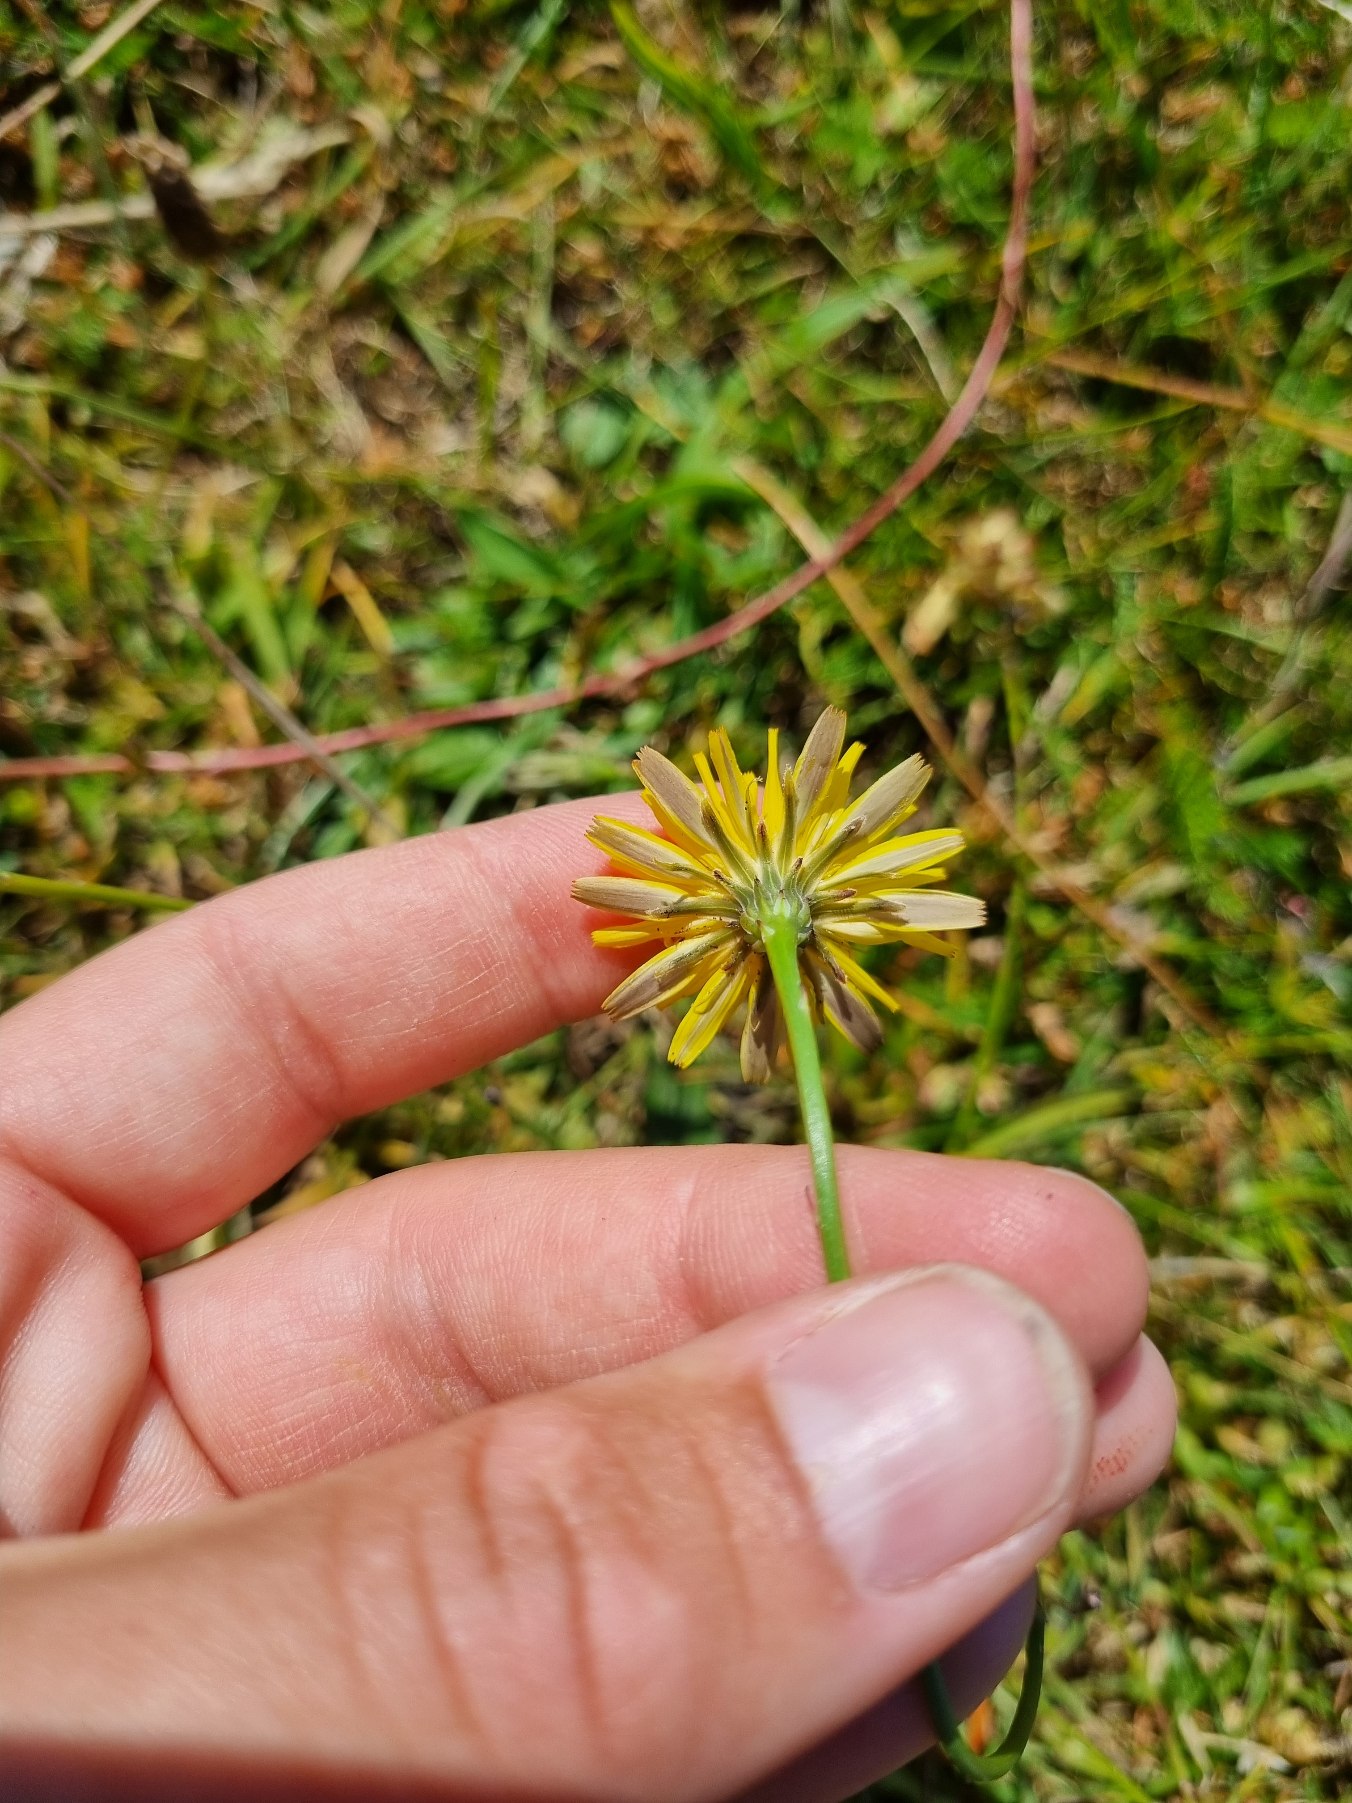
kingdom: Plantae
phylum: Tracheophyta
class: Magnoliopsida
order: Asterales
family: Asteraceae
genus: Hypochaeris
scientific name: Hypochaeris radicata
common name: Almindelig kongepen
